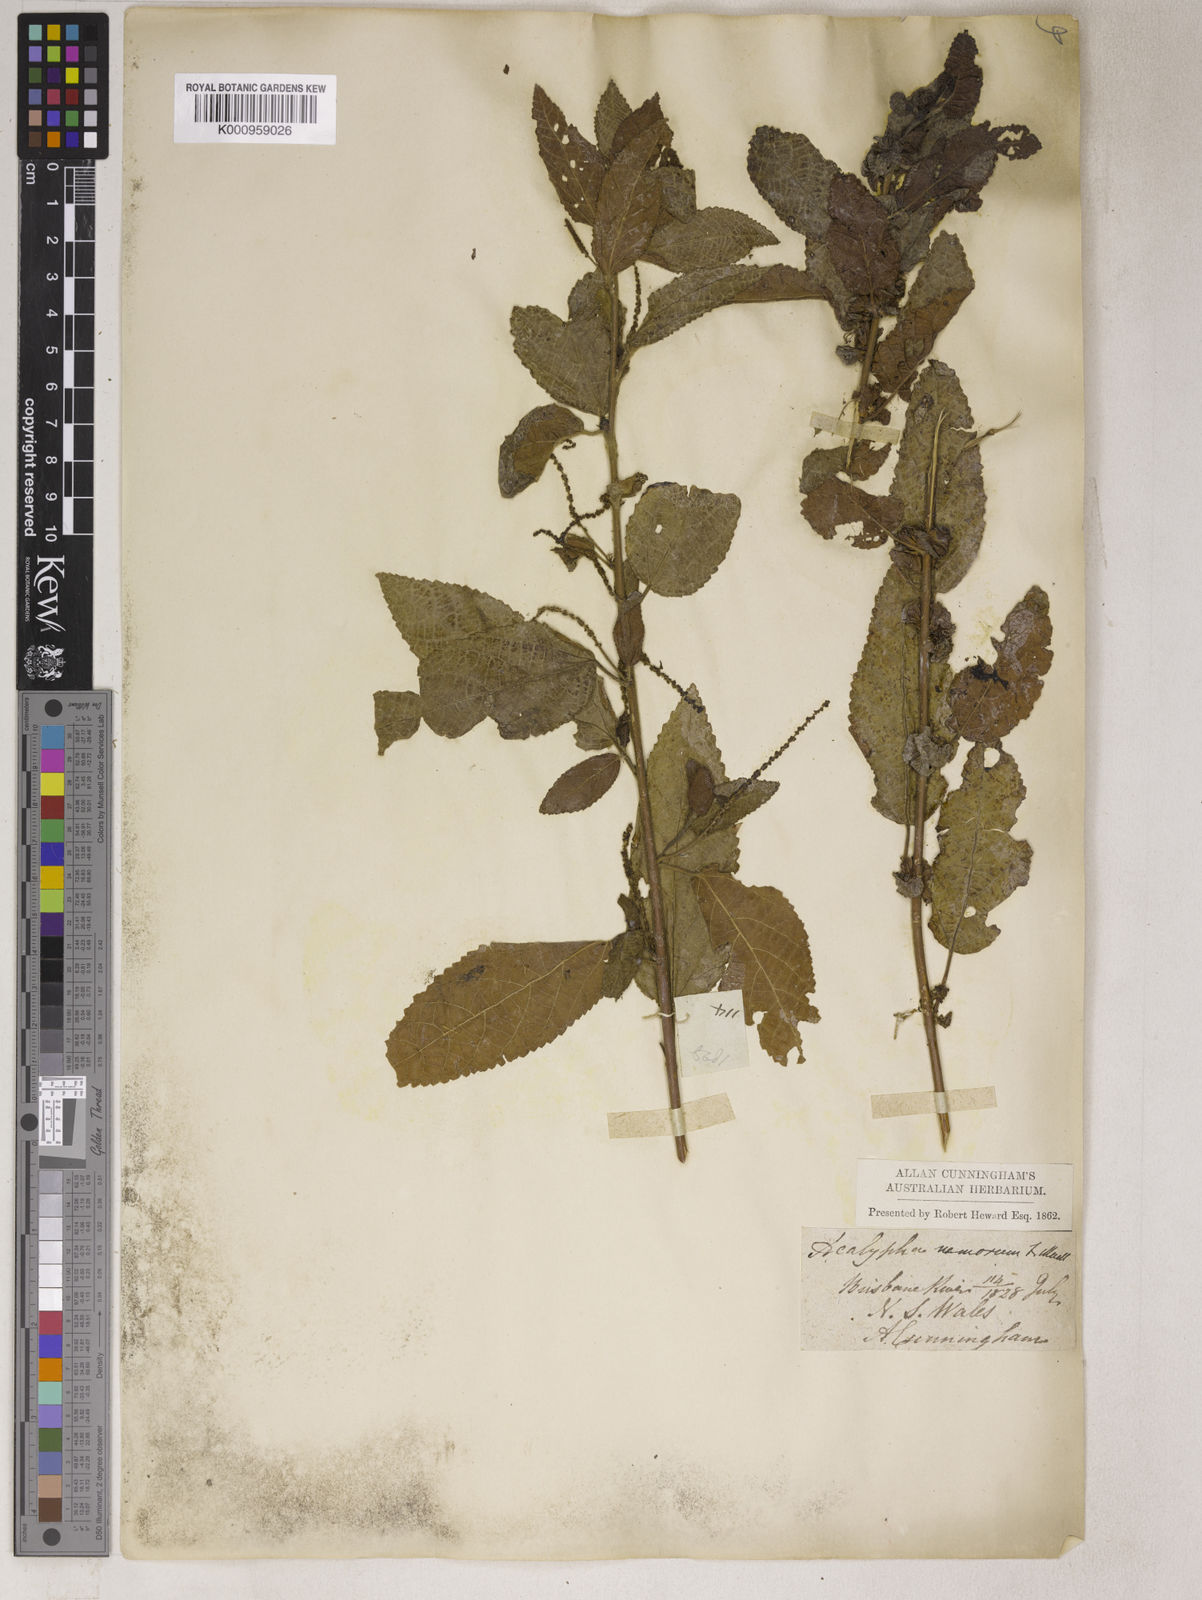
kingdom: Plantae
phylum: Tracheophyta
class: Magnoliopsida
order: Malpighiales
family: Euphorbiaceae
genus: Acalypha
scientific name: Acalypha
